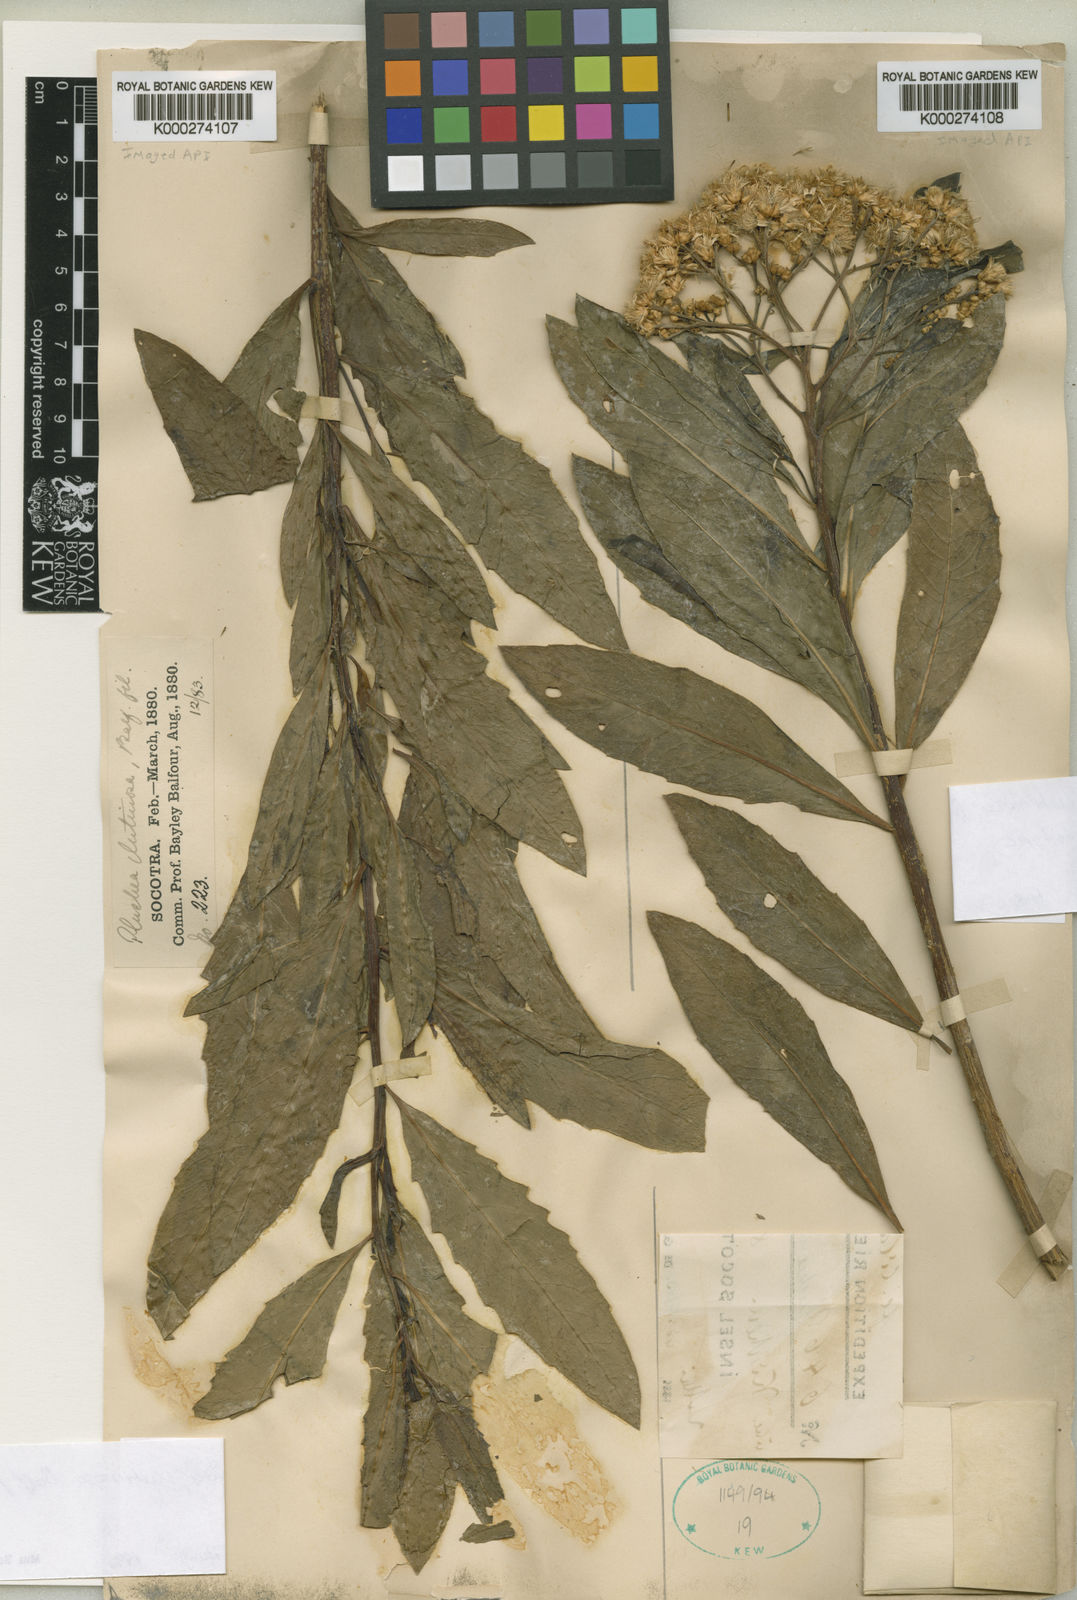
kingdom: Plantae
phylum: Tracheophyta
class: Magnoliopsida
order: Asterales
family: Asteraceae
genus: Pluchea
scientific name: Pluchea glutinosa
